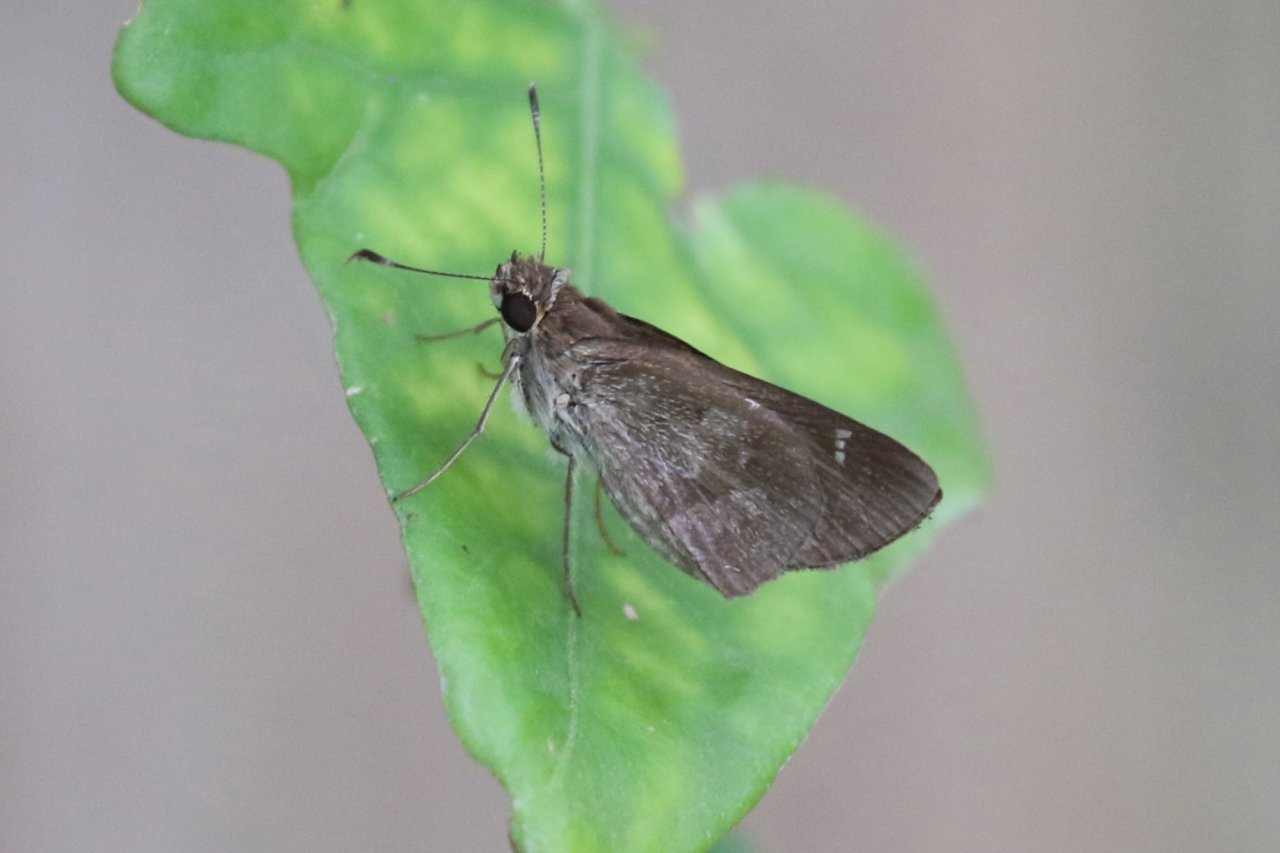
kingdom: Animalia
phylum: Arthropoda
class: Insecta
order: Lepidoptera
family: Hesperiidae
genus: Cymaenes
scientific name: Cymaenes odilia
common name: Fawn-spotted Skipper
